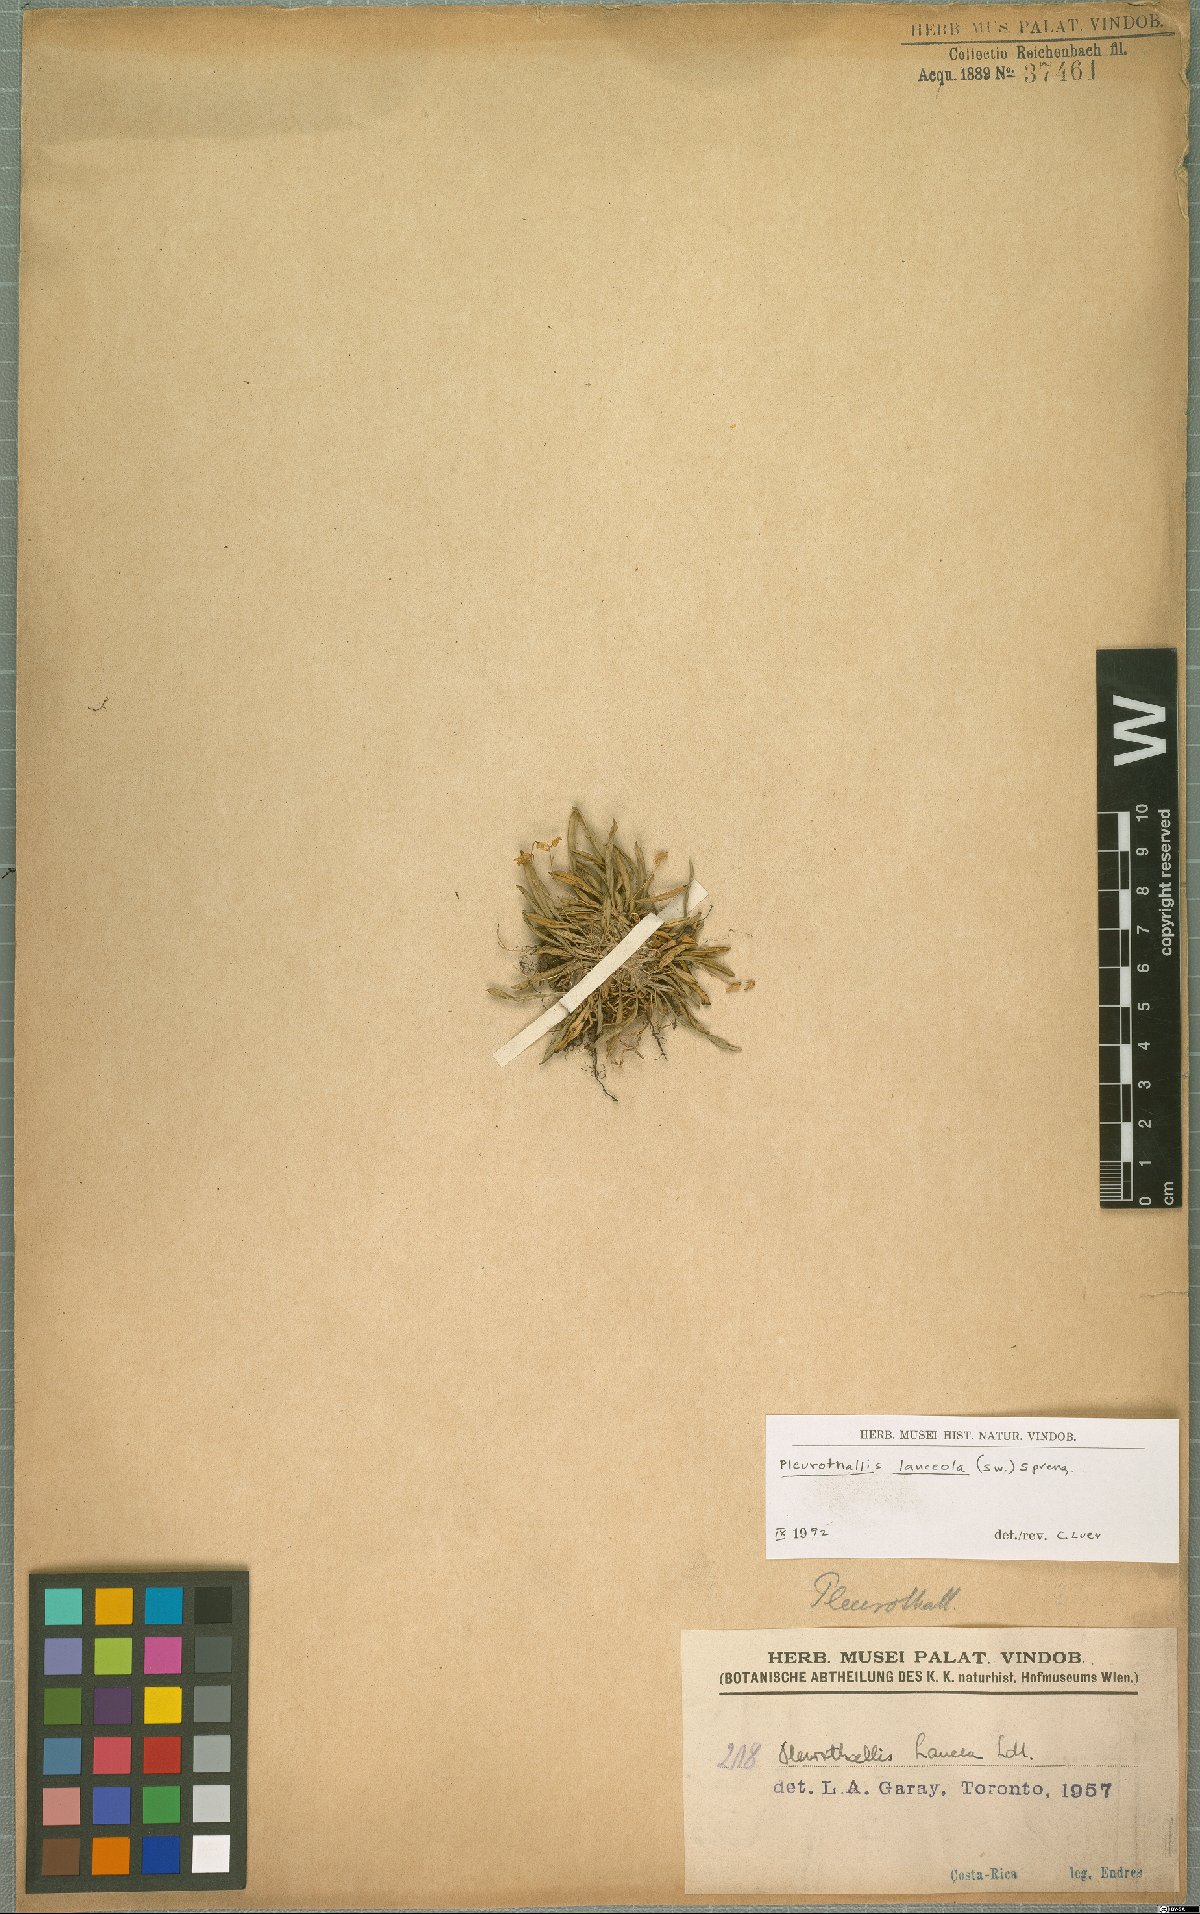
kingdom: Plantae
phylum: Tracheophyta
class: Liliopsida
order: Asparagales
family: Orchidaceae
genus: Specklinia
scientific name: Specklinia lanceola
